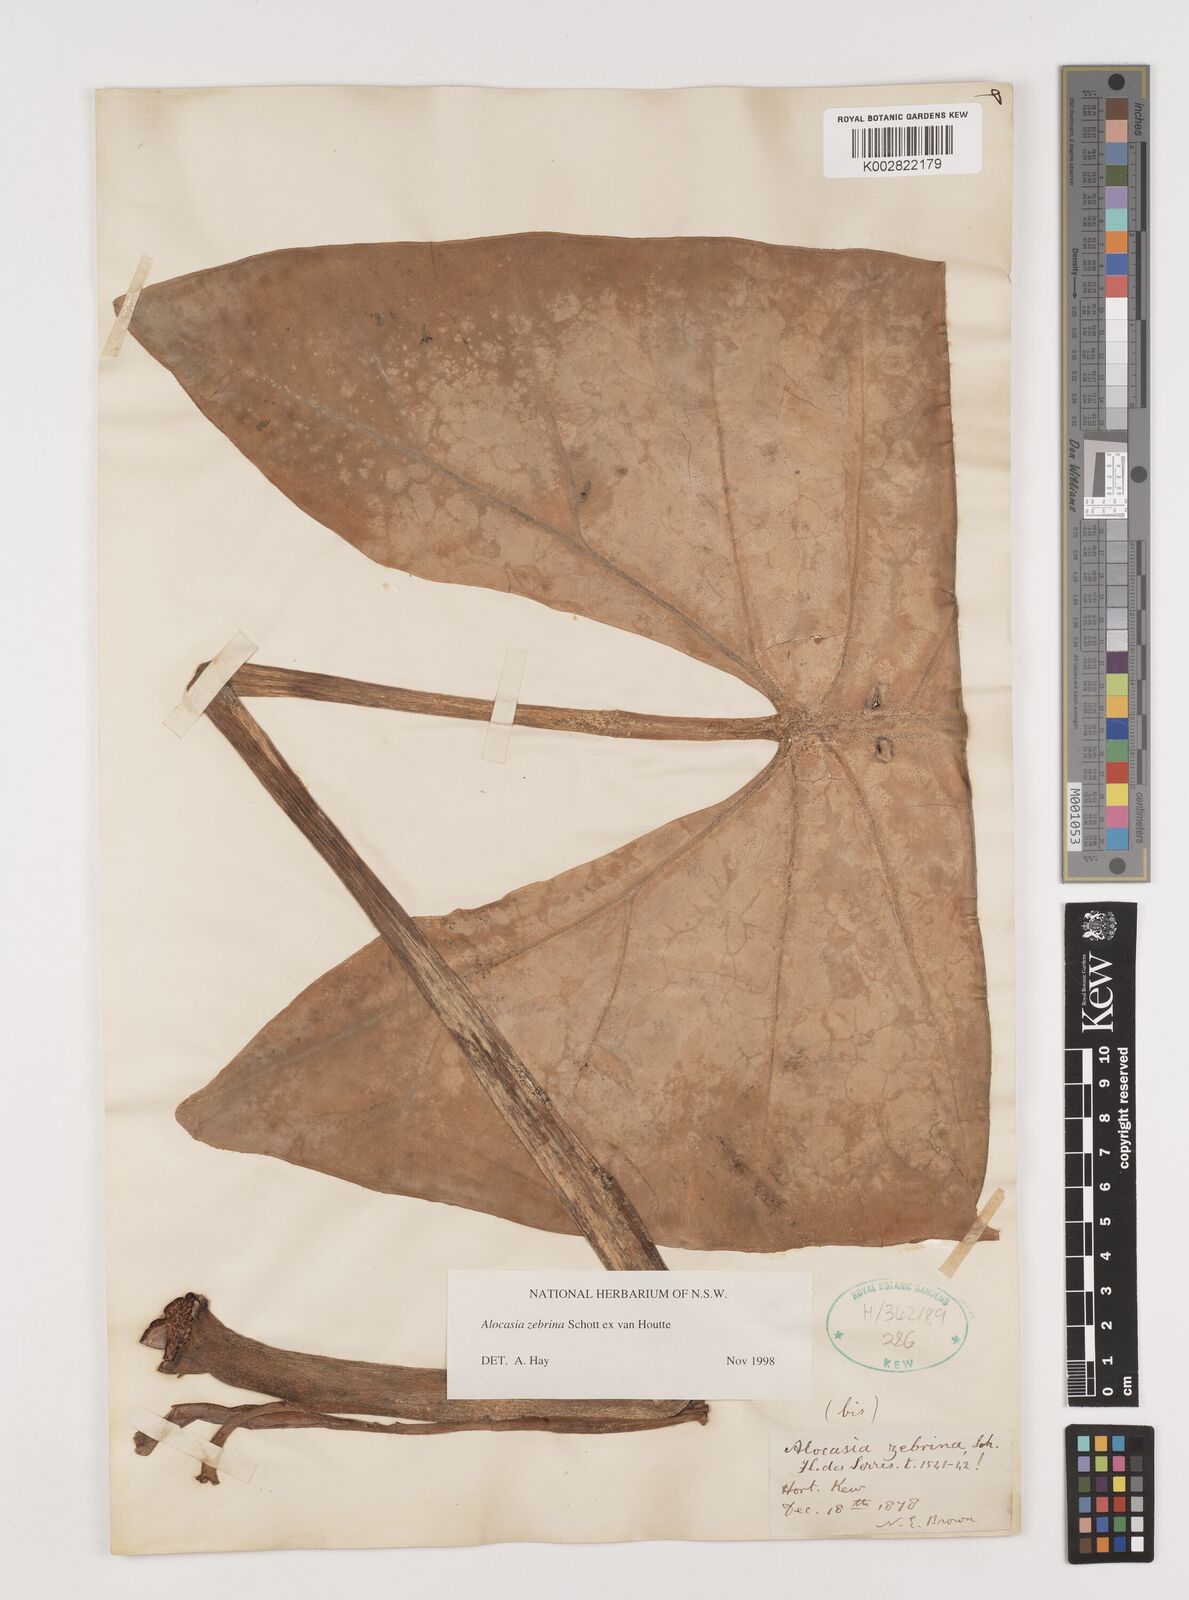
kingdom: Plantae
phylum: Tracheophyta
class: Liliopsida
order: Alismatales
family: Araceae
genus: Alocasia
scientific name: Alocasia zebrina
